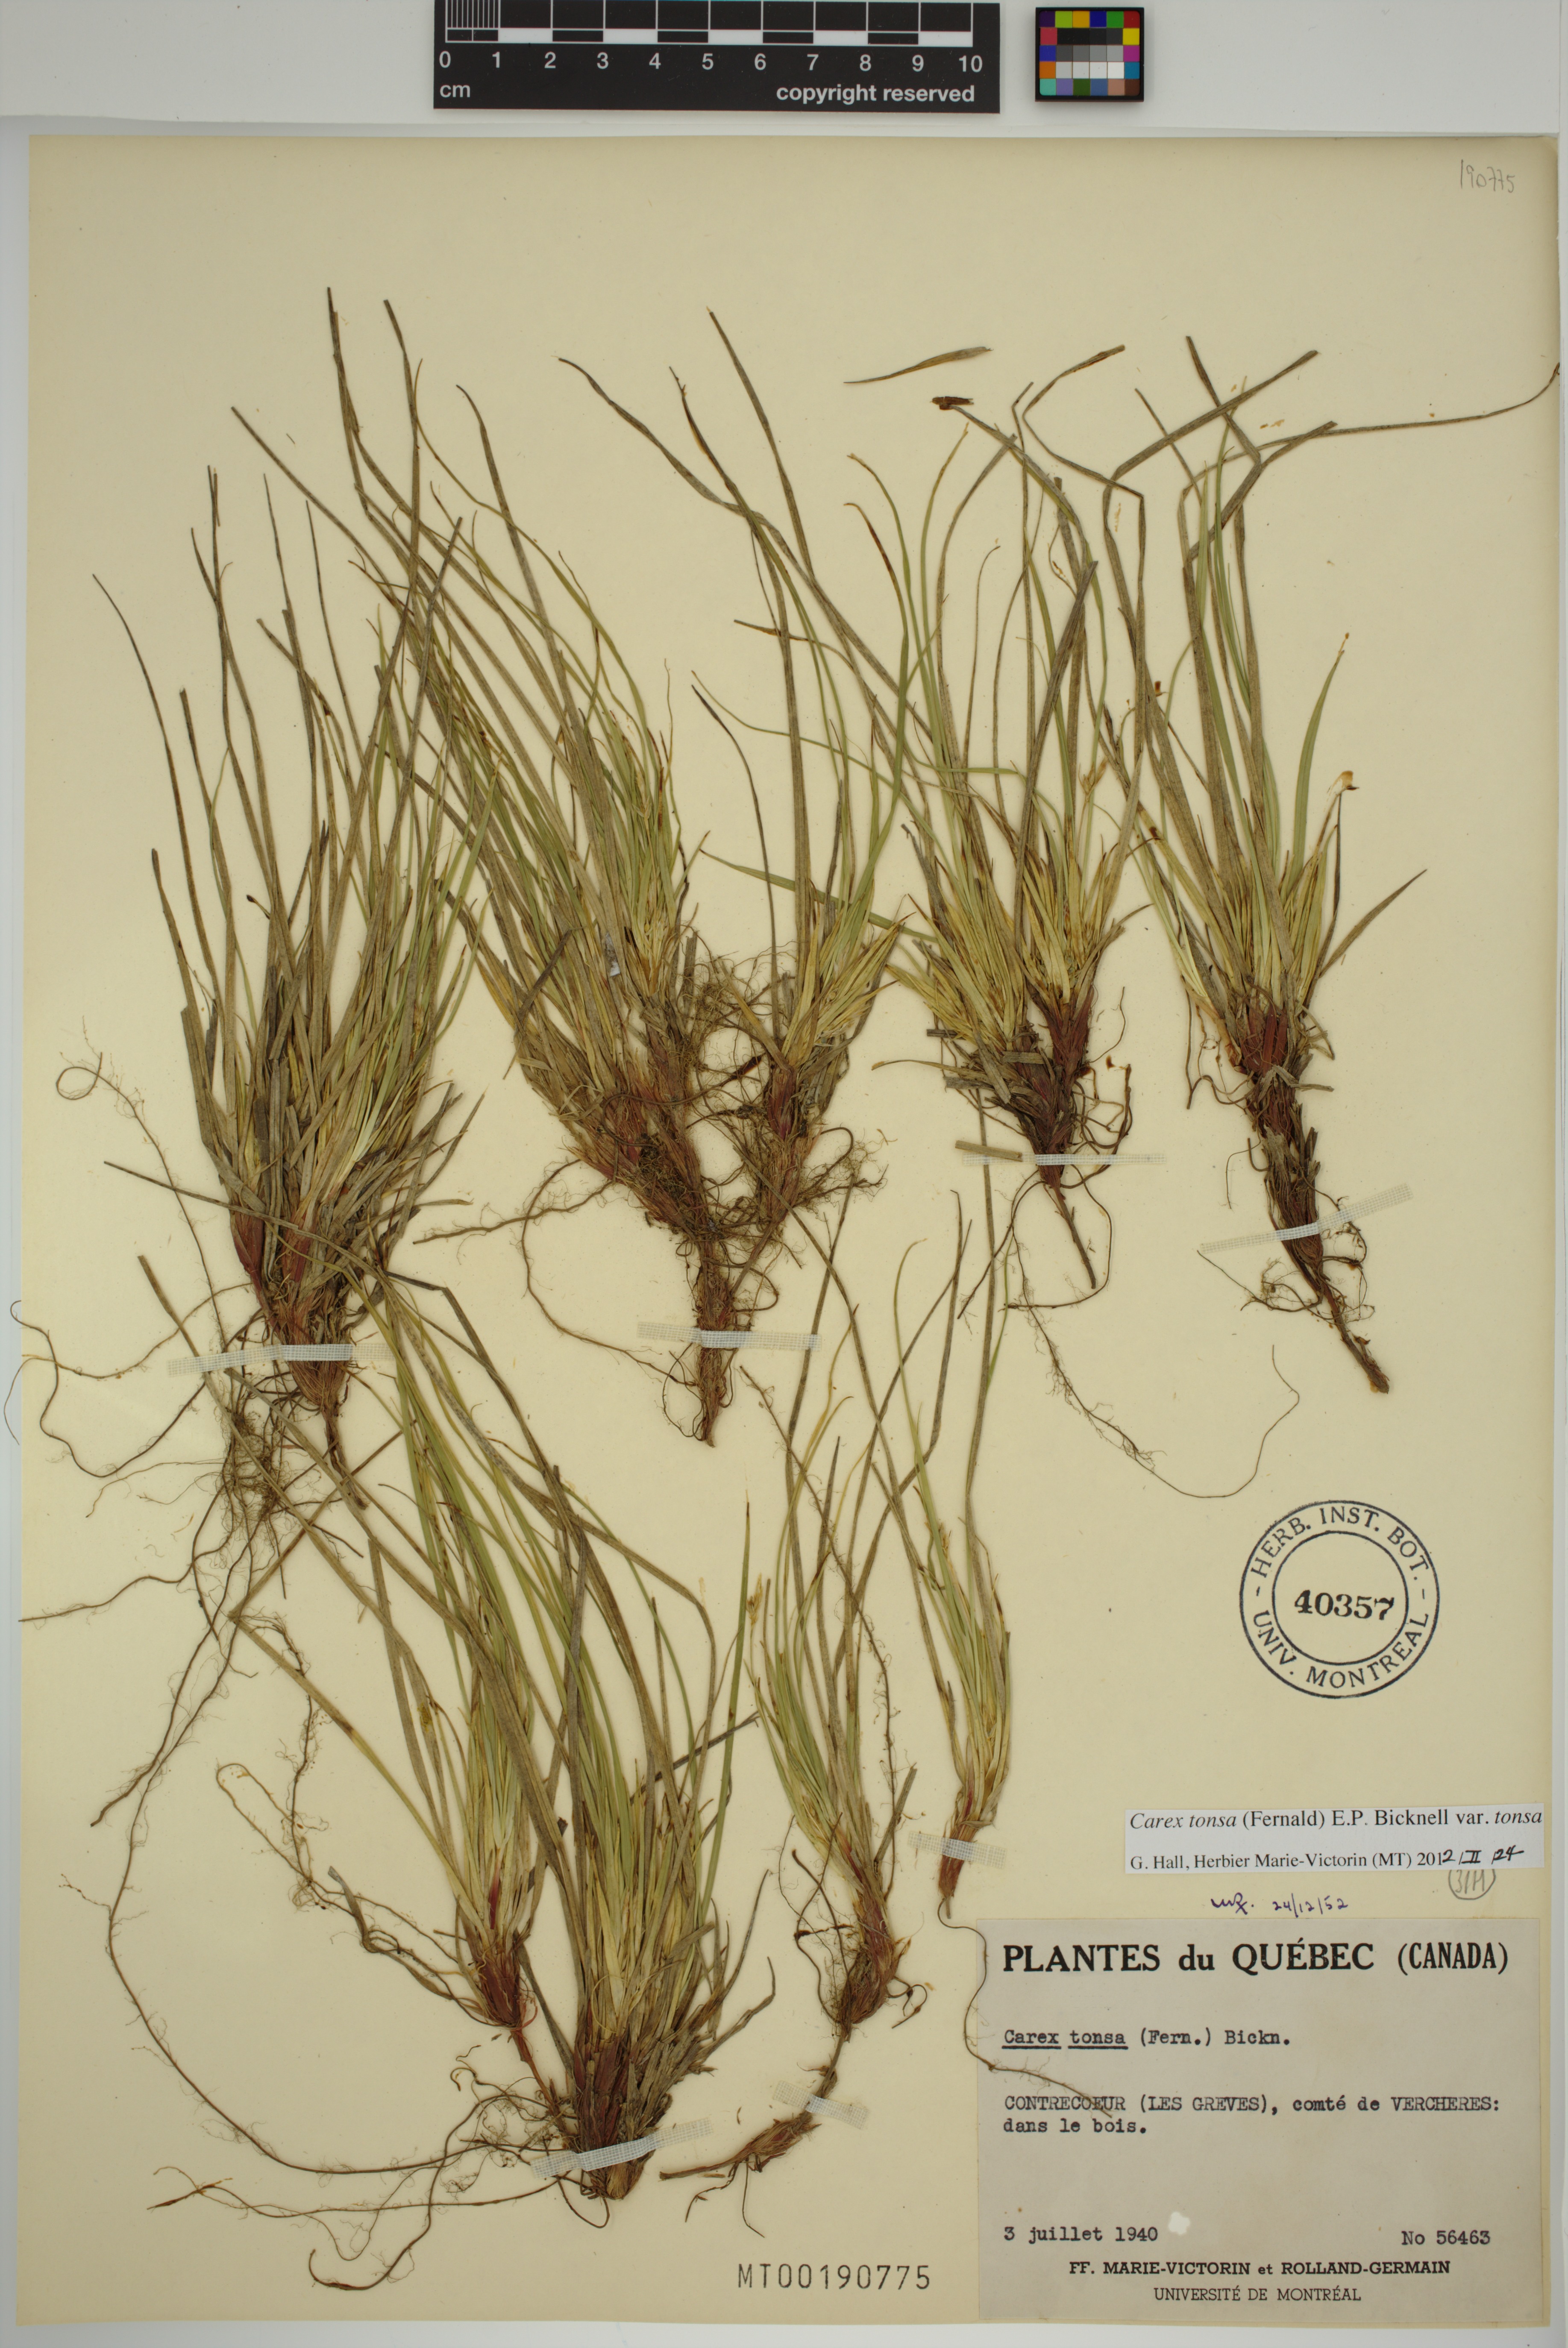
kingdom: Plantae
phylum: Tracheophyta
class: Liliopsida
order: Poales
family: Cyperaceae
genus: Carex
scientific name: Carex tonsa
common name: Bald sedge
